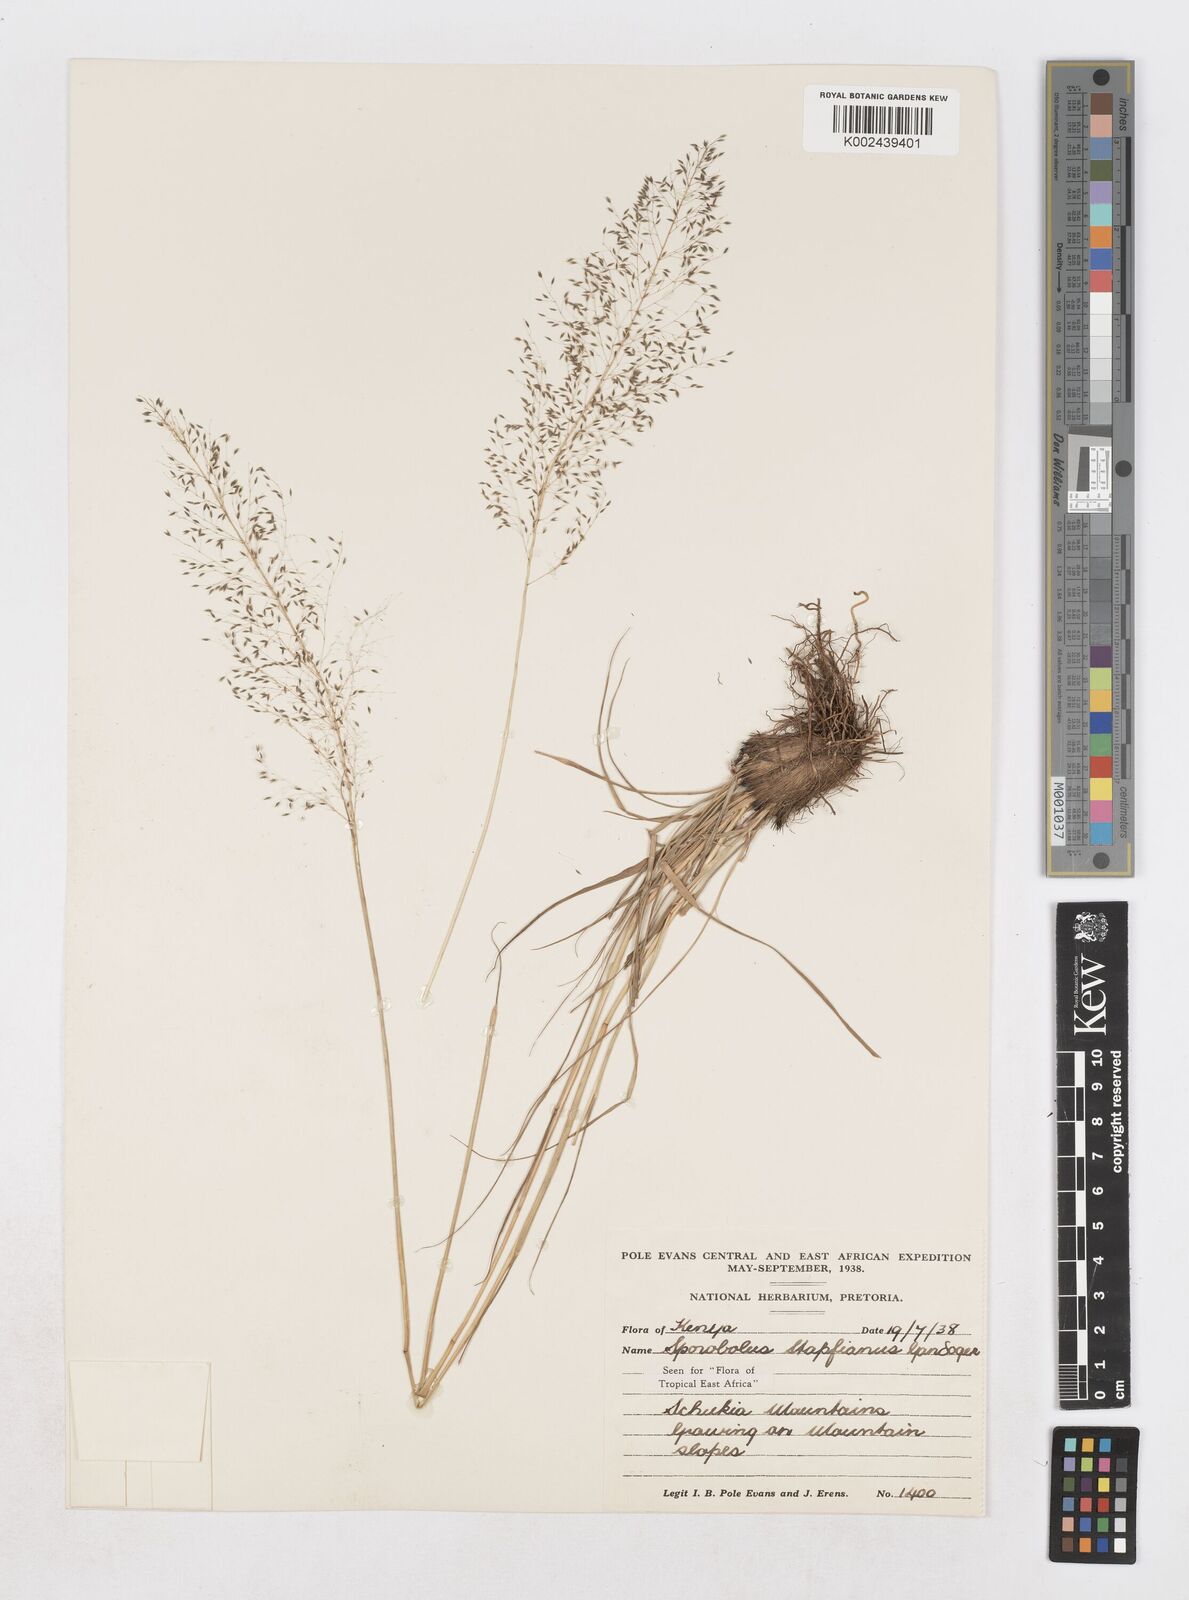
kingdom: Plantae
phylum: Tracheophyta
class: Liliopsida
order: Poales
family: Poaceae
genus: Sporobolus
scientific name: Sporobolus stapfianus
